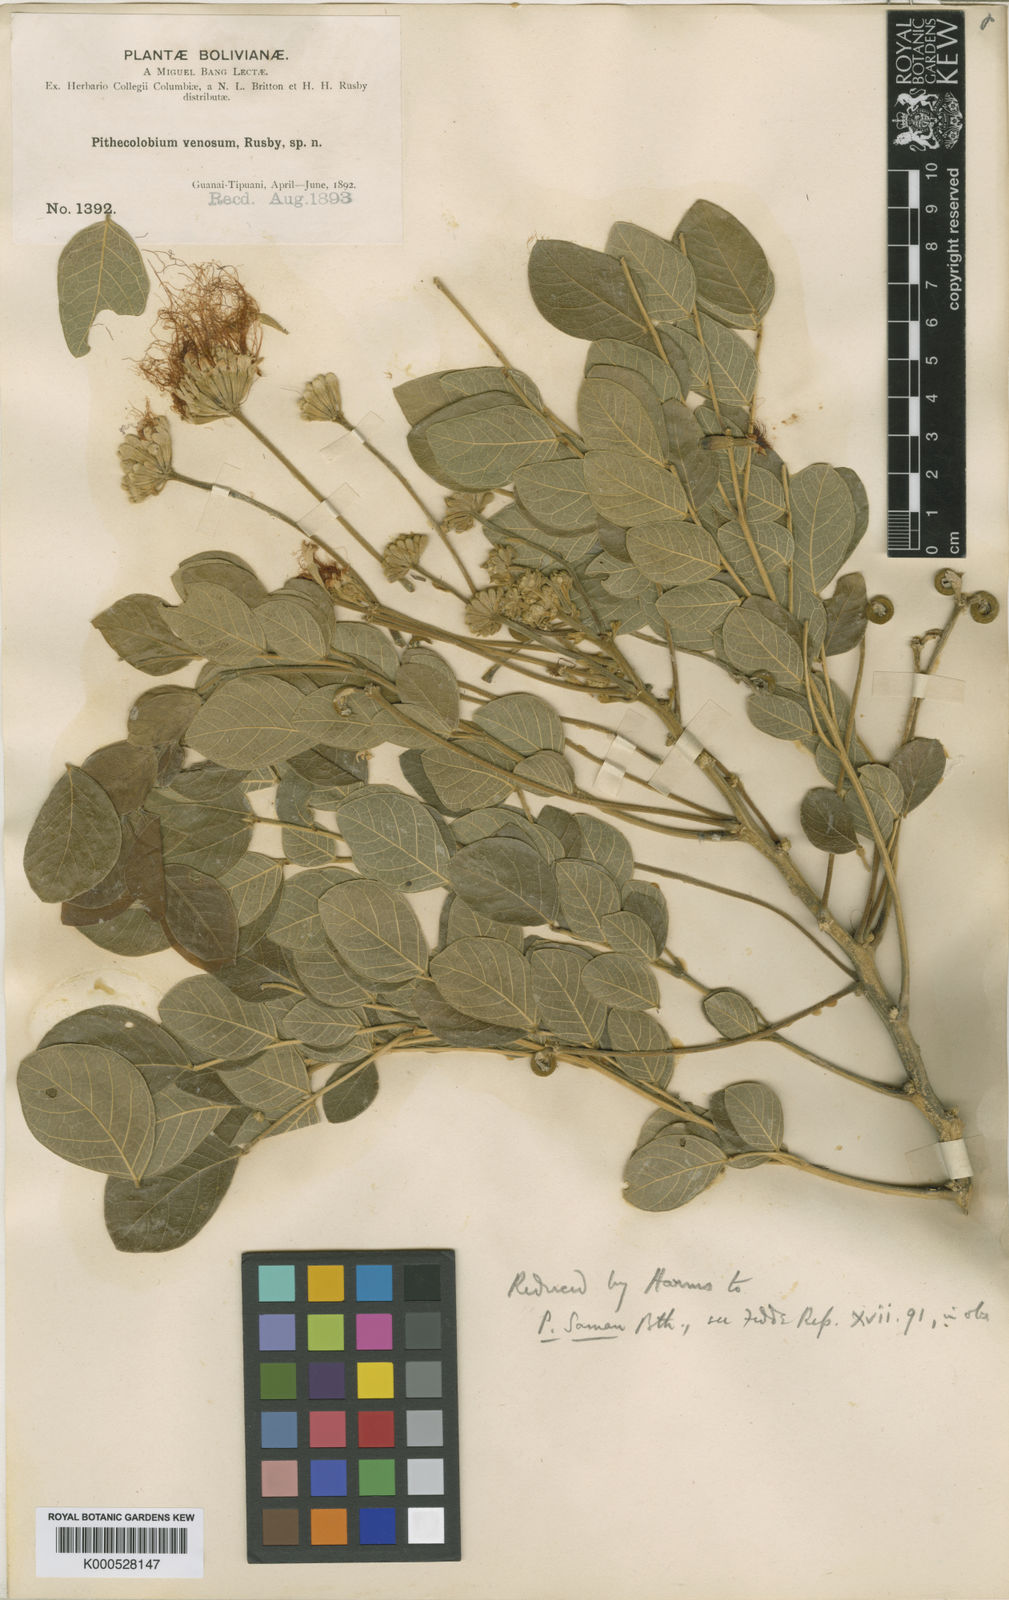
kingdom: Plantae
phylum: Tracheophyta
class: Magnoliopsida
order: Fabales
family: Fabaceae
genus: Samanea
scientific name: Samanea tubulosa
